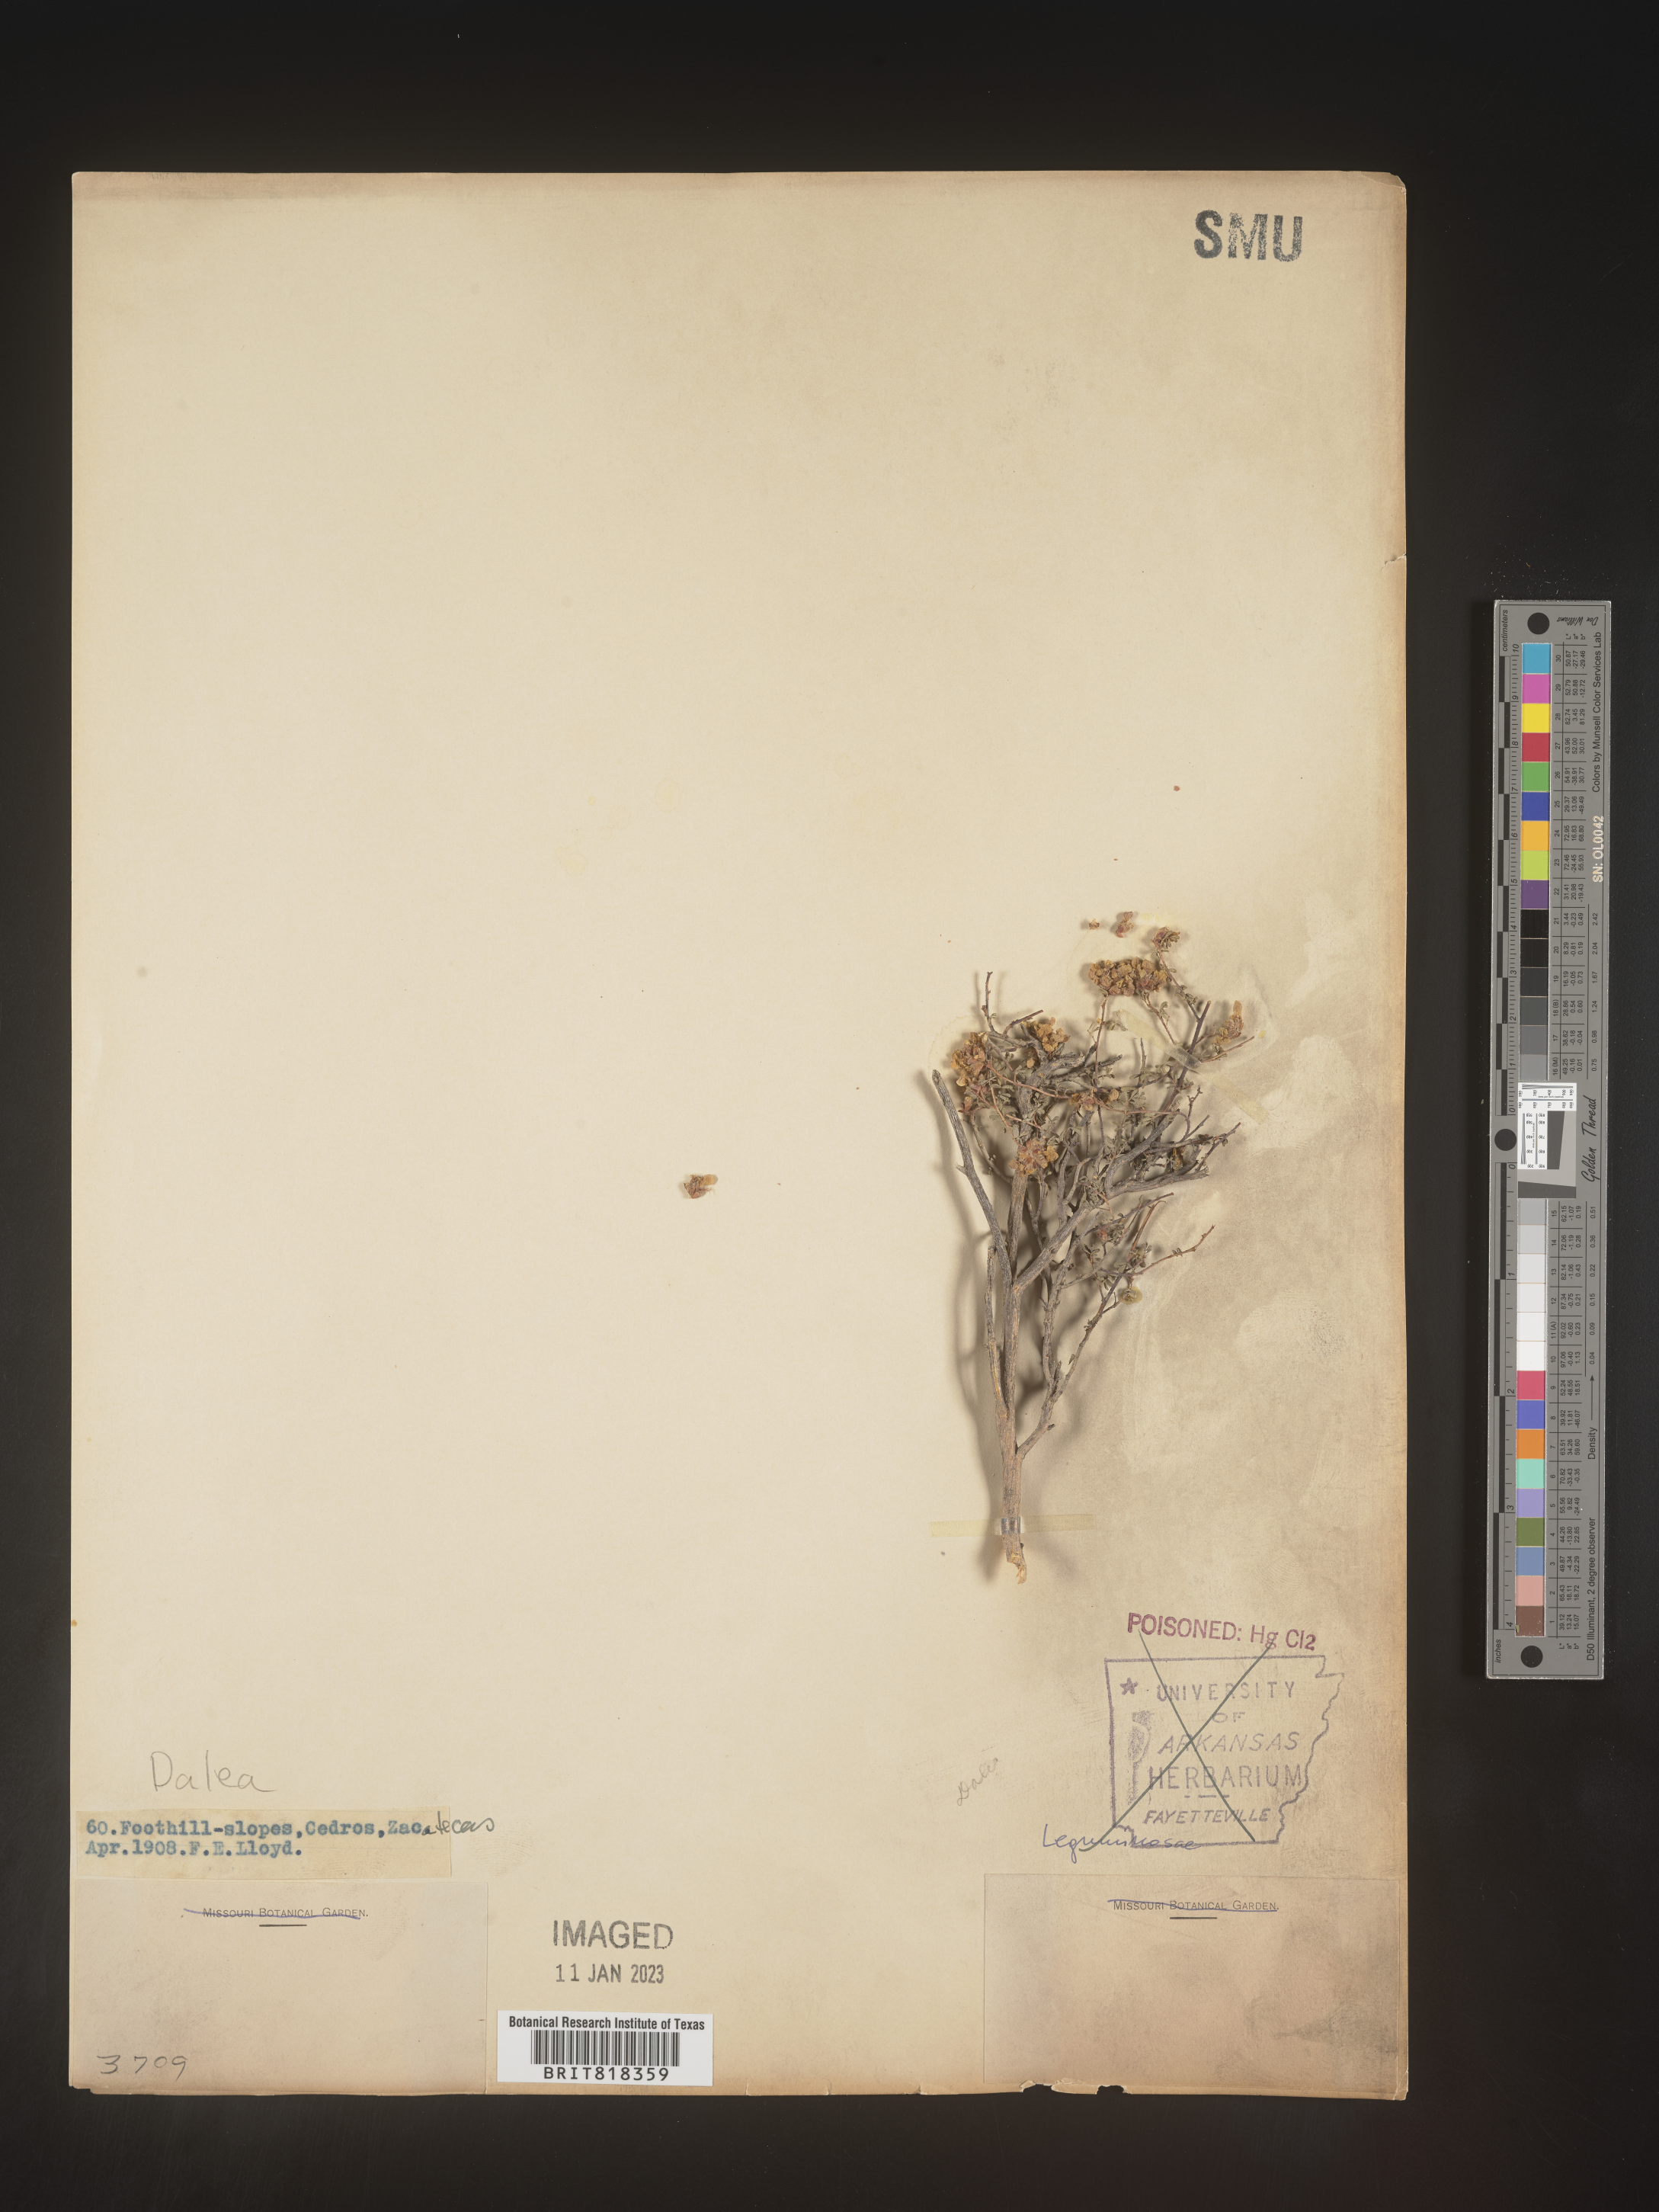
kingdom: Plantae
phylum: Tracheophyta
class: Magnoliopsida
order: Fabales
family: Fabaceae
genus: Dalea
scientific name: Dalea
